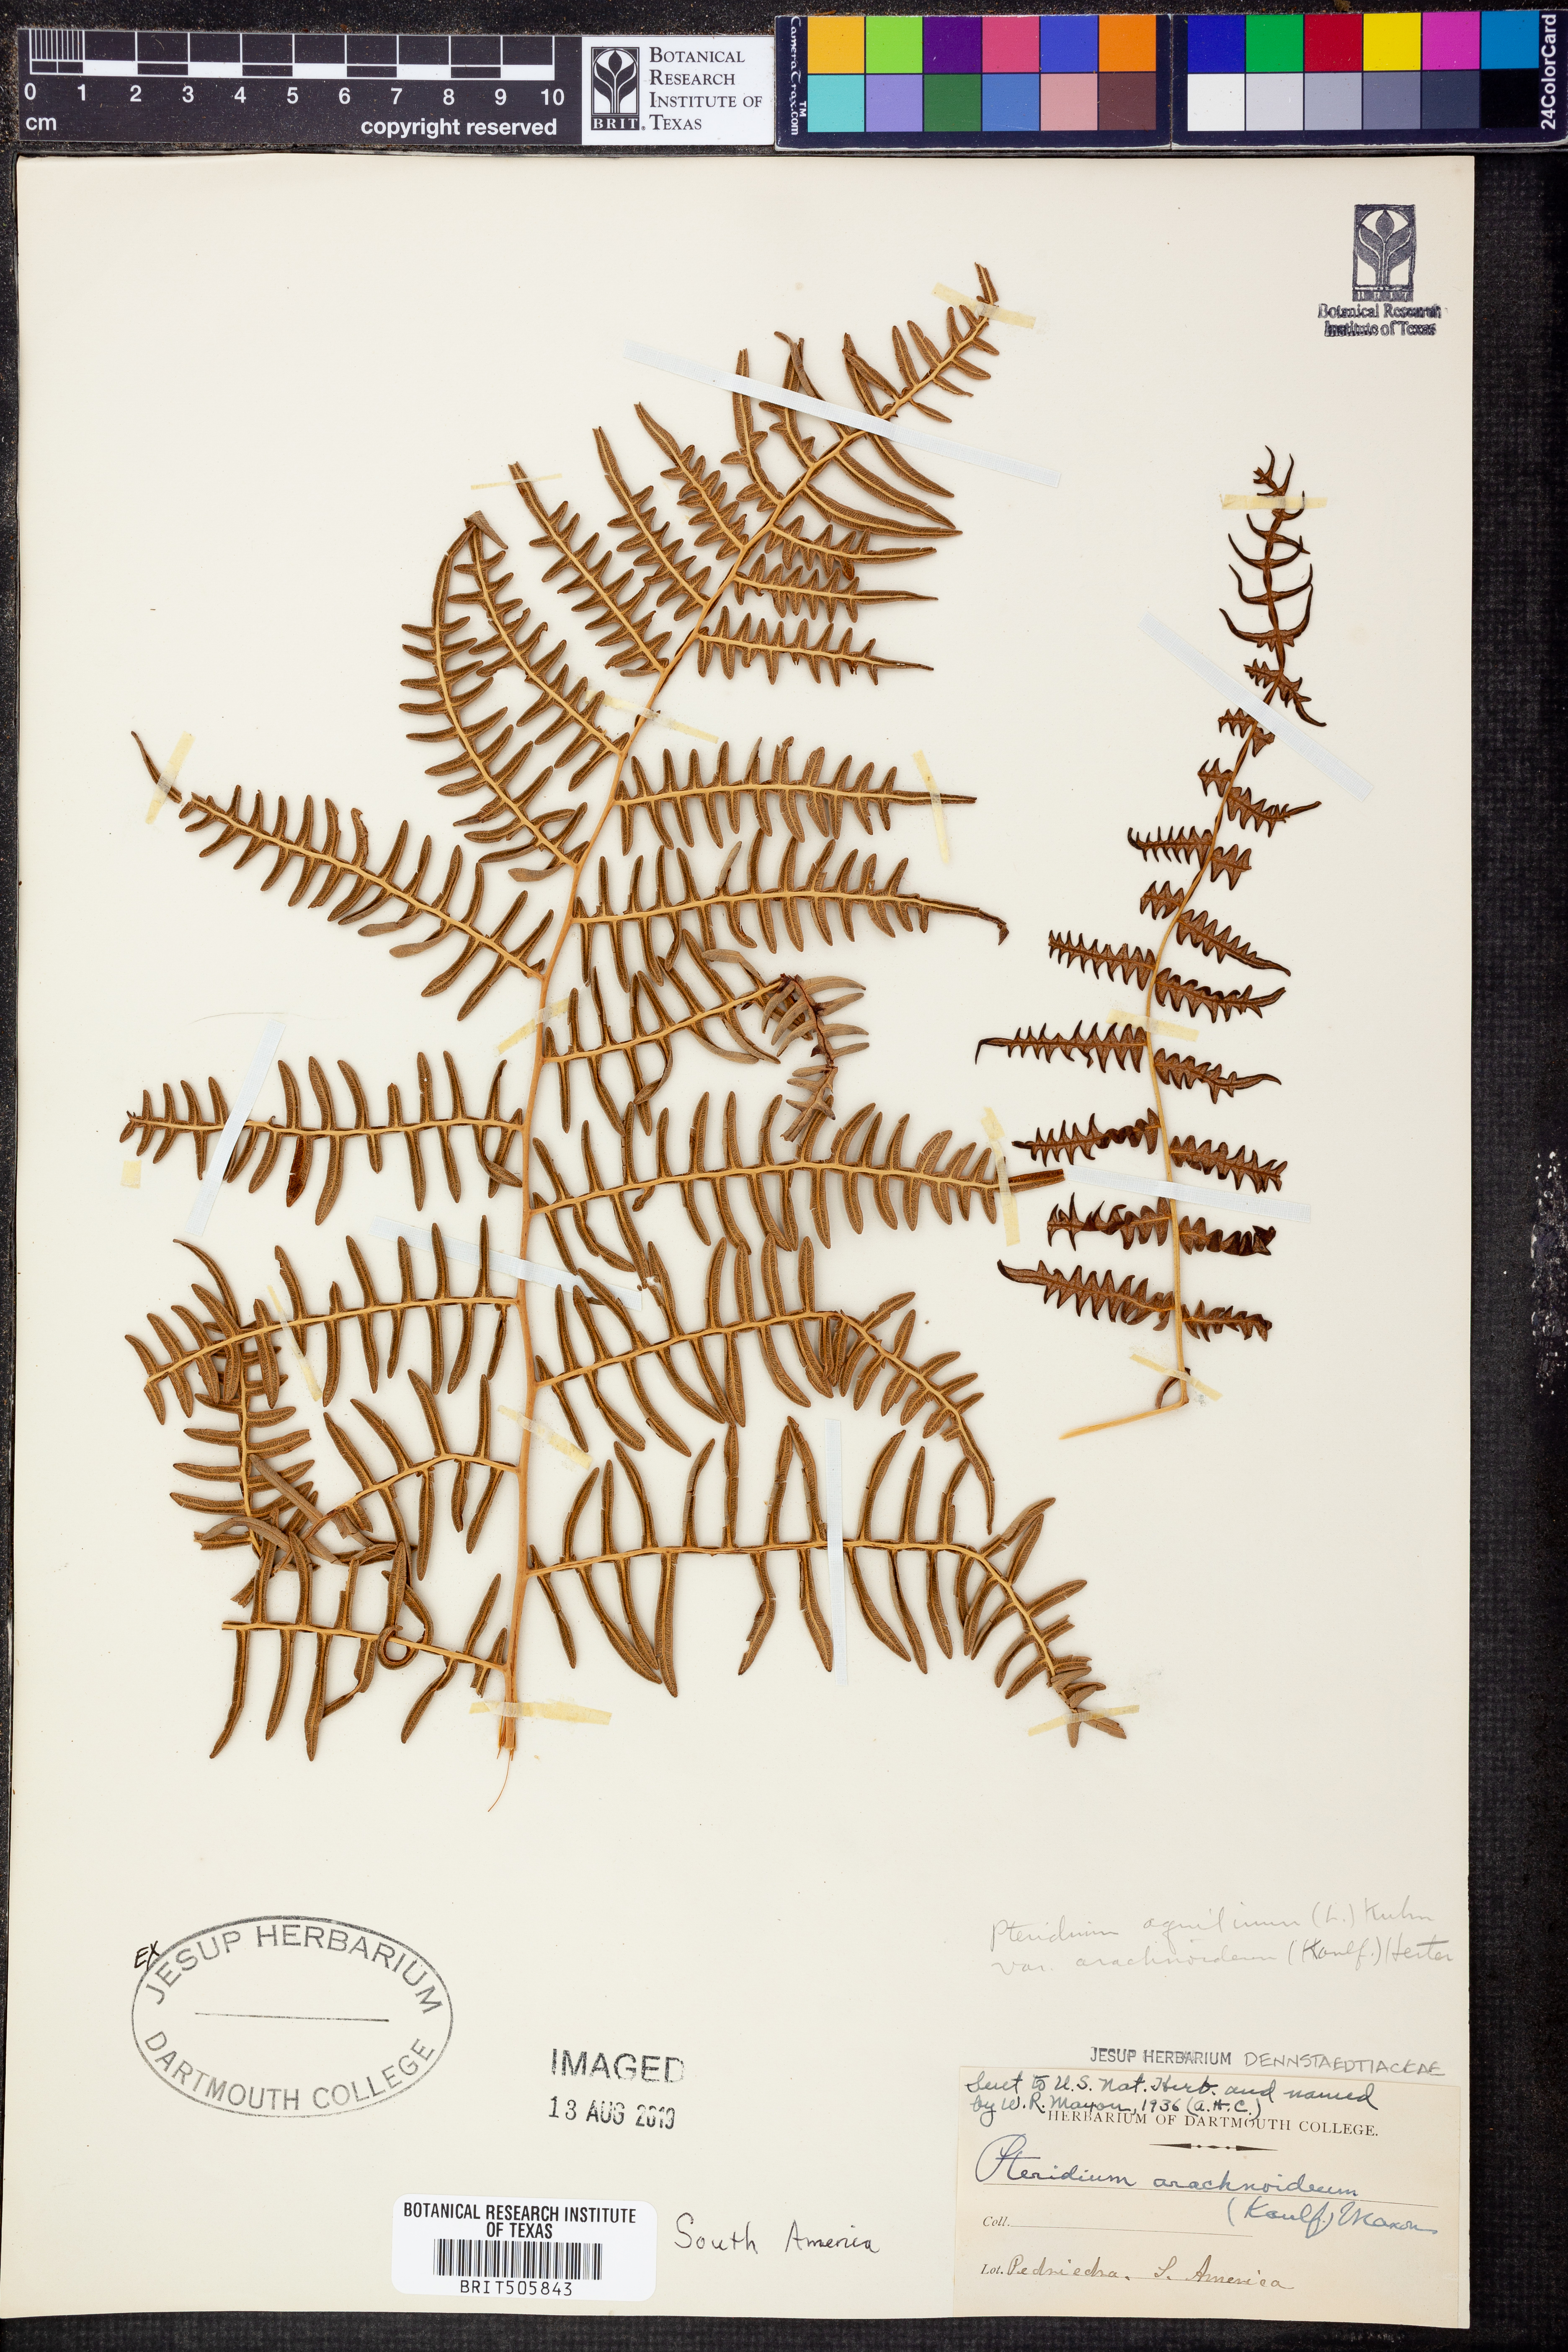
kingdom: Plantae
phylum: Tracheophyta
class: Polypodiopsida
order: Polypodiales
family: Dennstaedtiaceae
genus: Pteridium
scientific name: Pteridium esculentum
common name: Bracken fern
